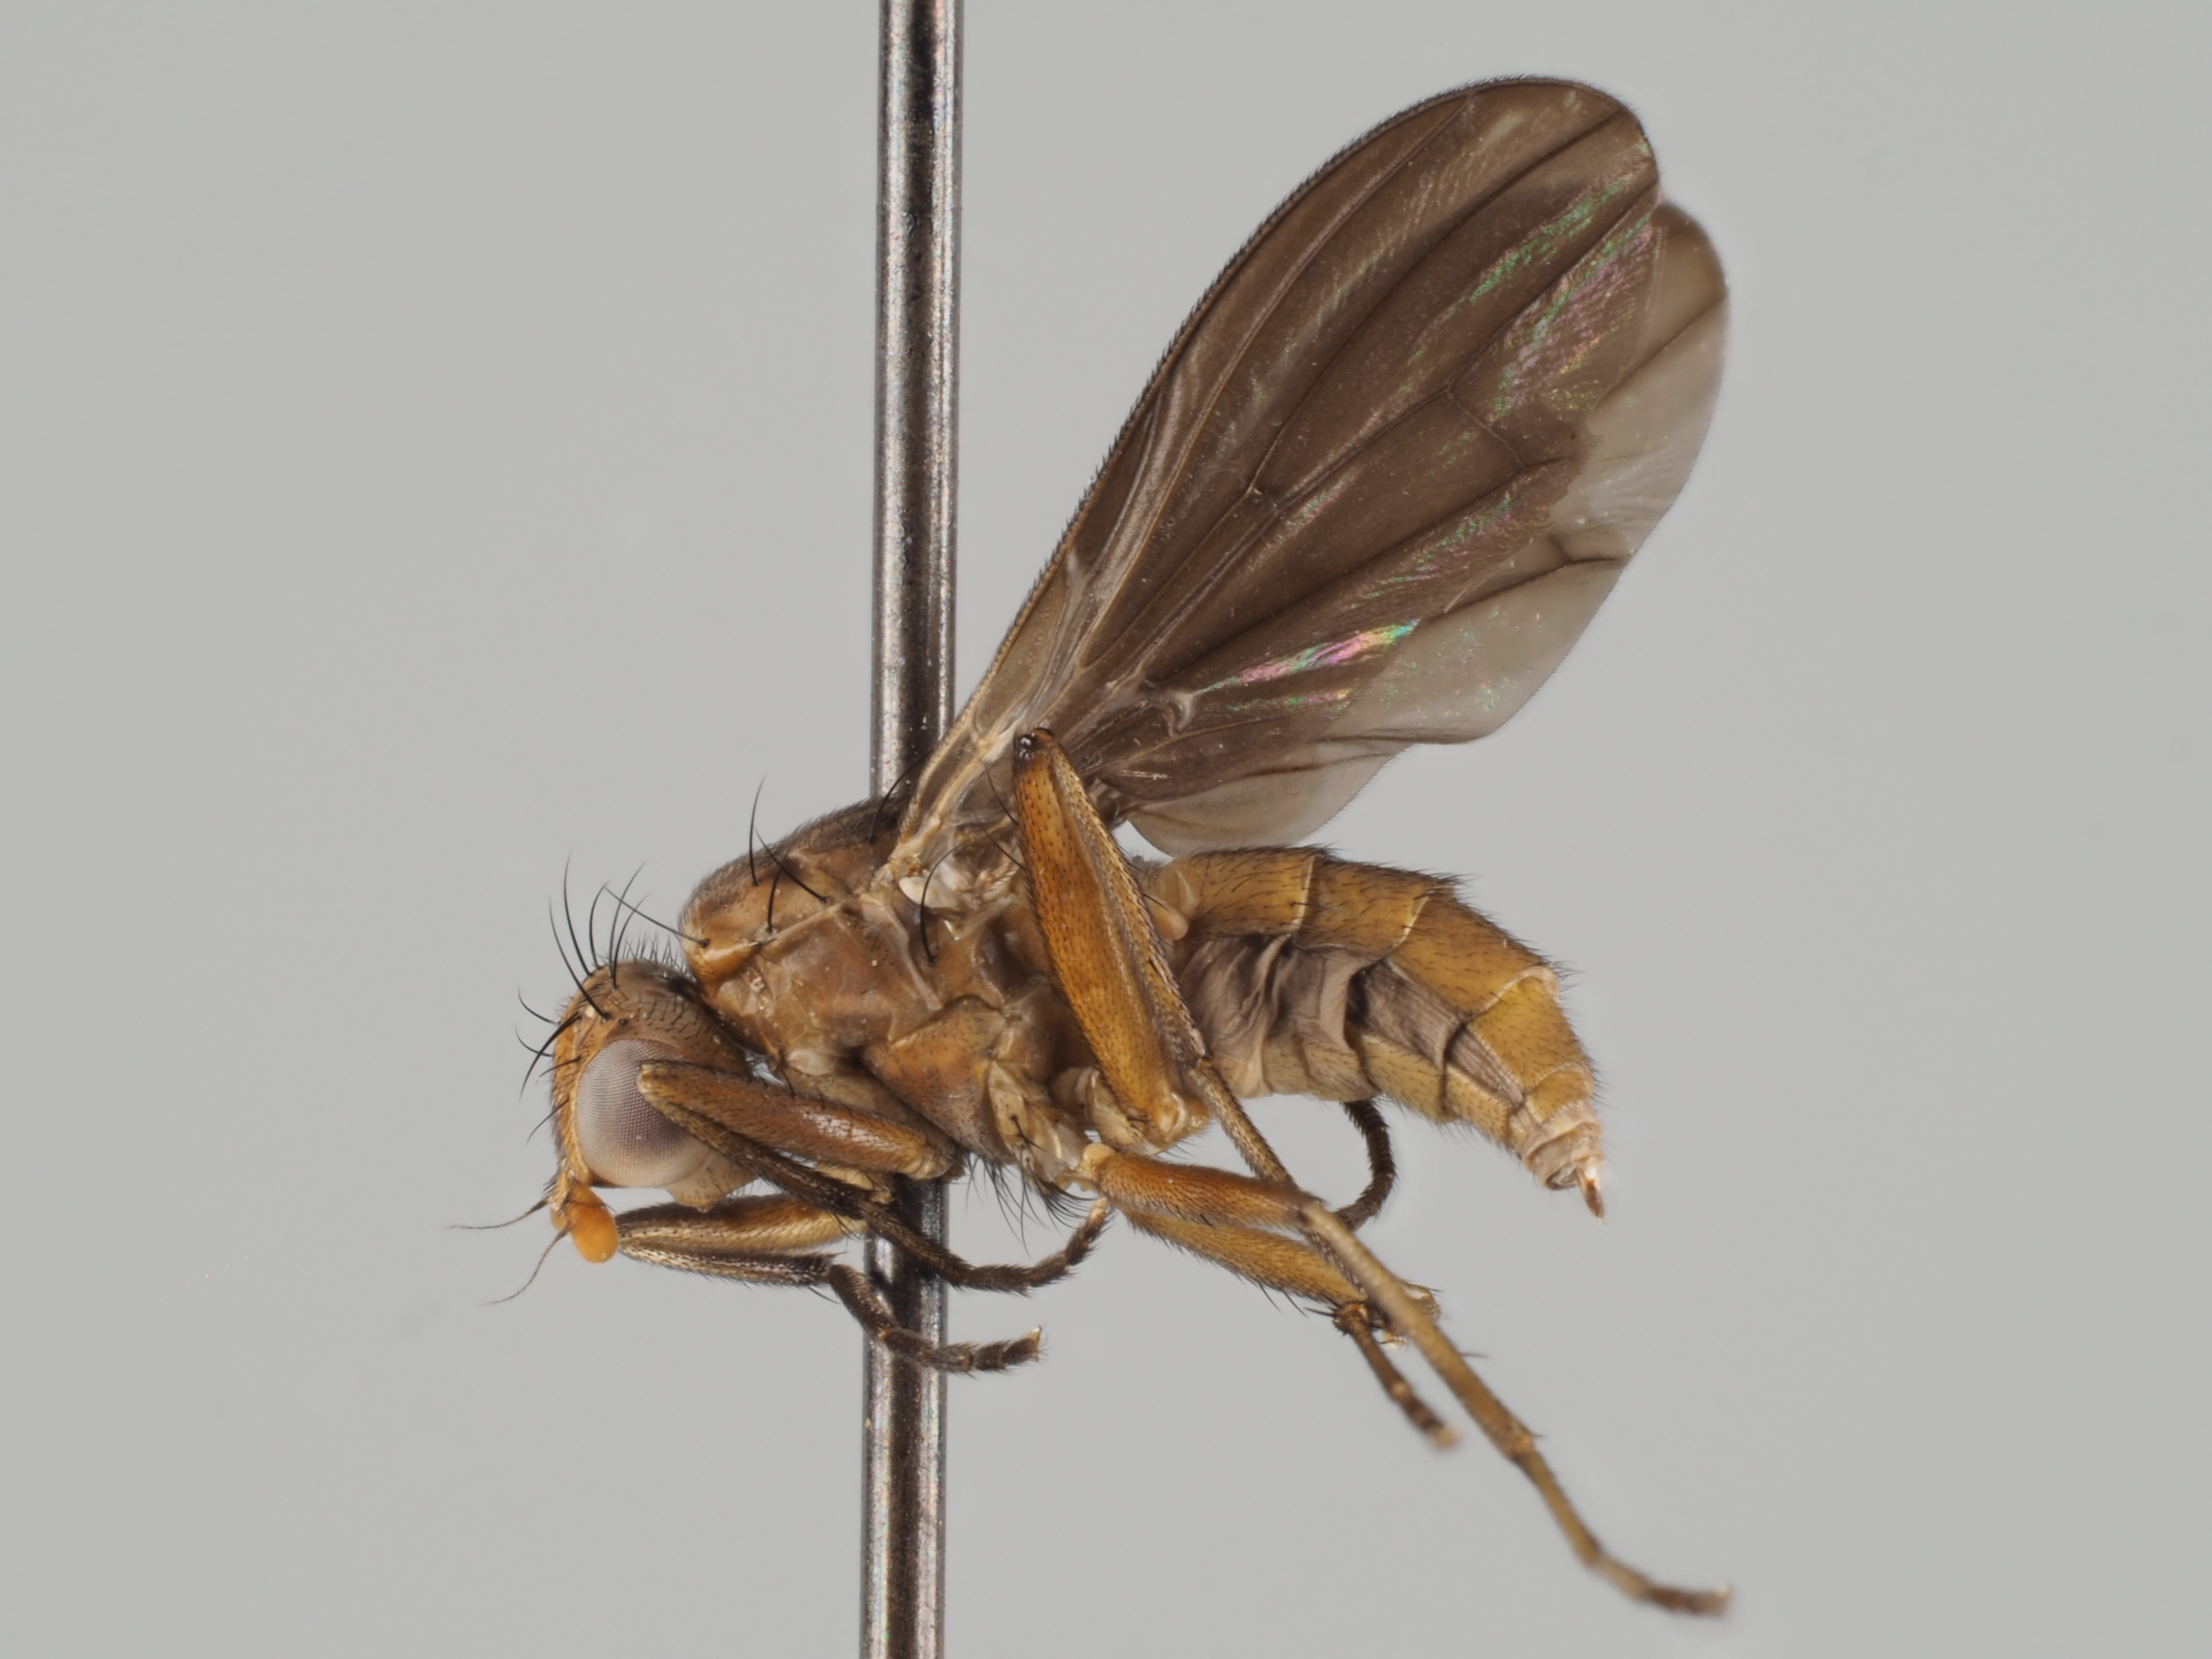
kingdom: Animalia
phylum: Arthropoda
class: Insecta
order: Diptera
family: Phaeomyiidae
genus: Pelidnoptera
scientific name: Pelidnoptera fuscipennis
